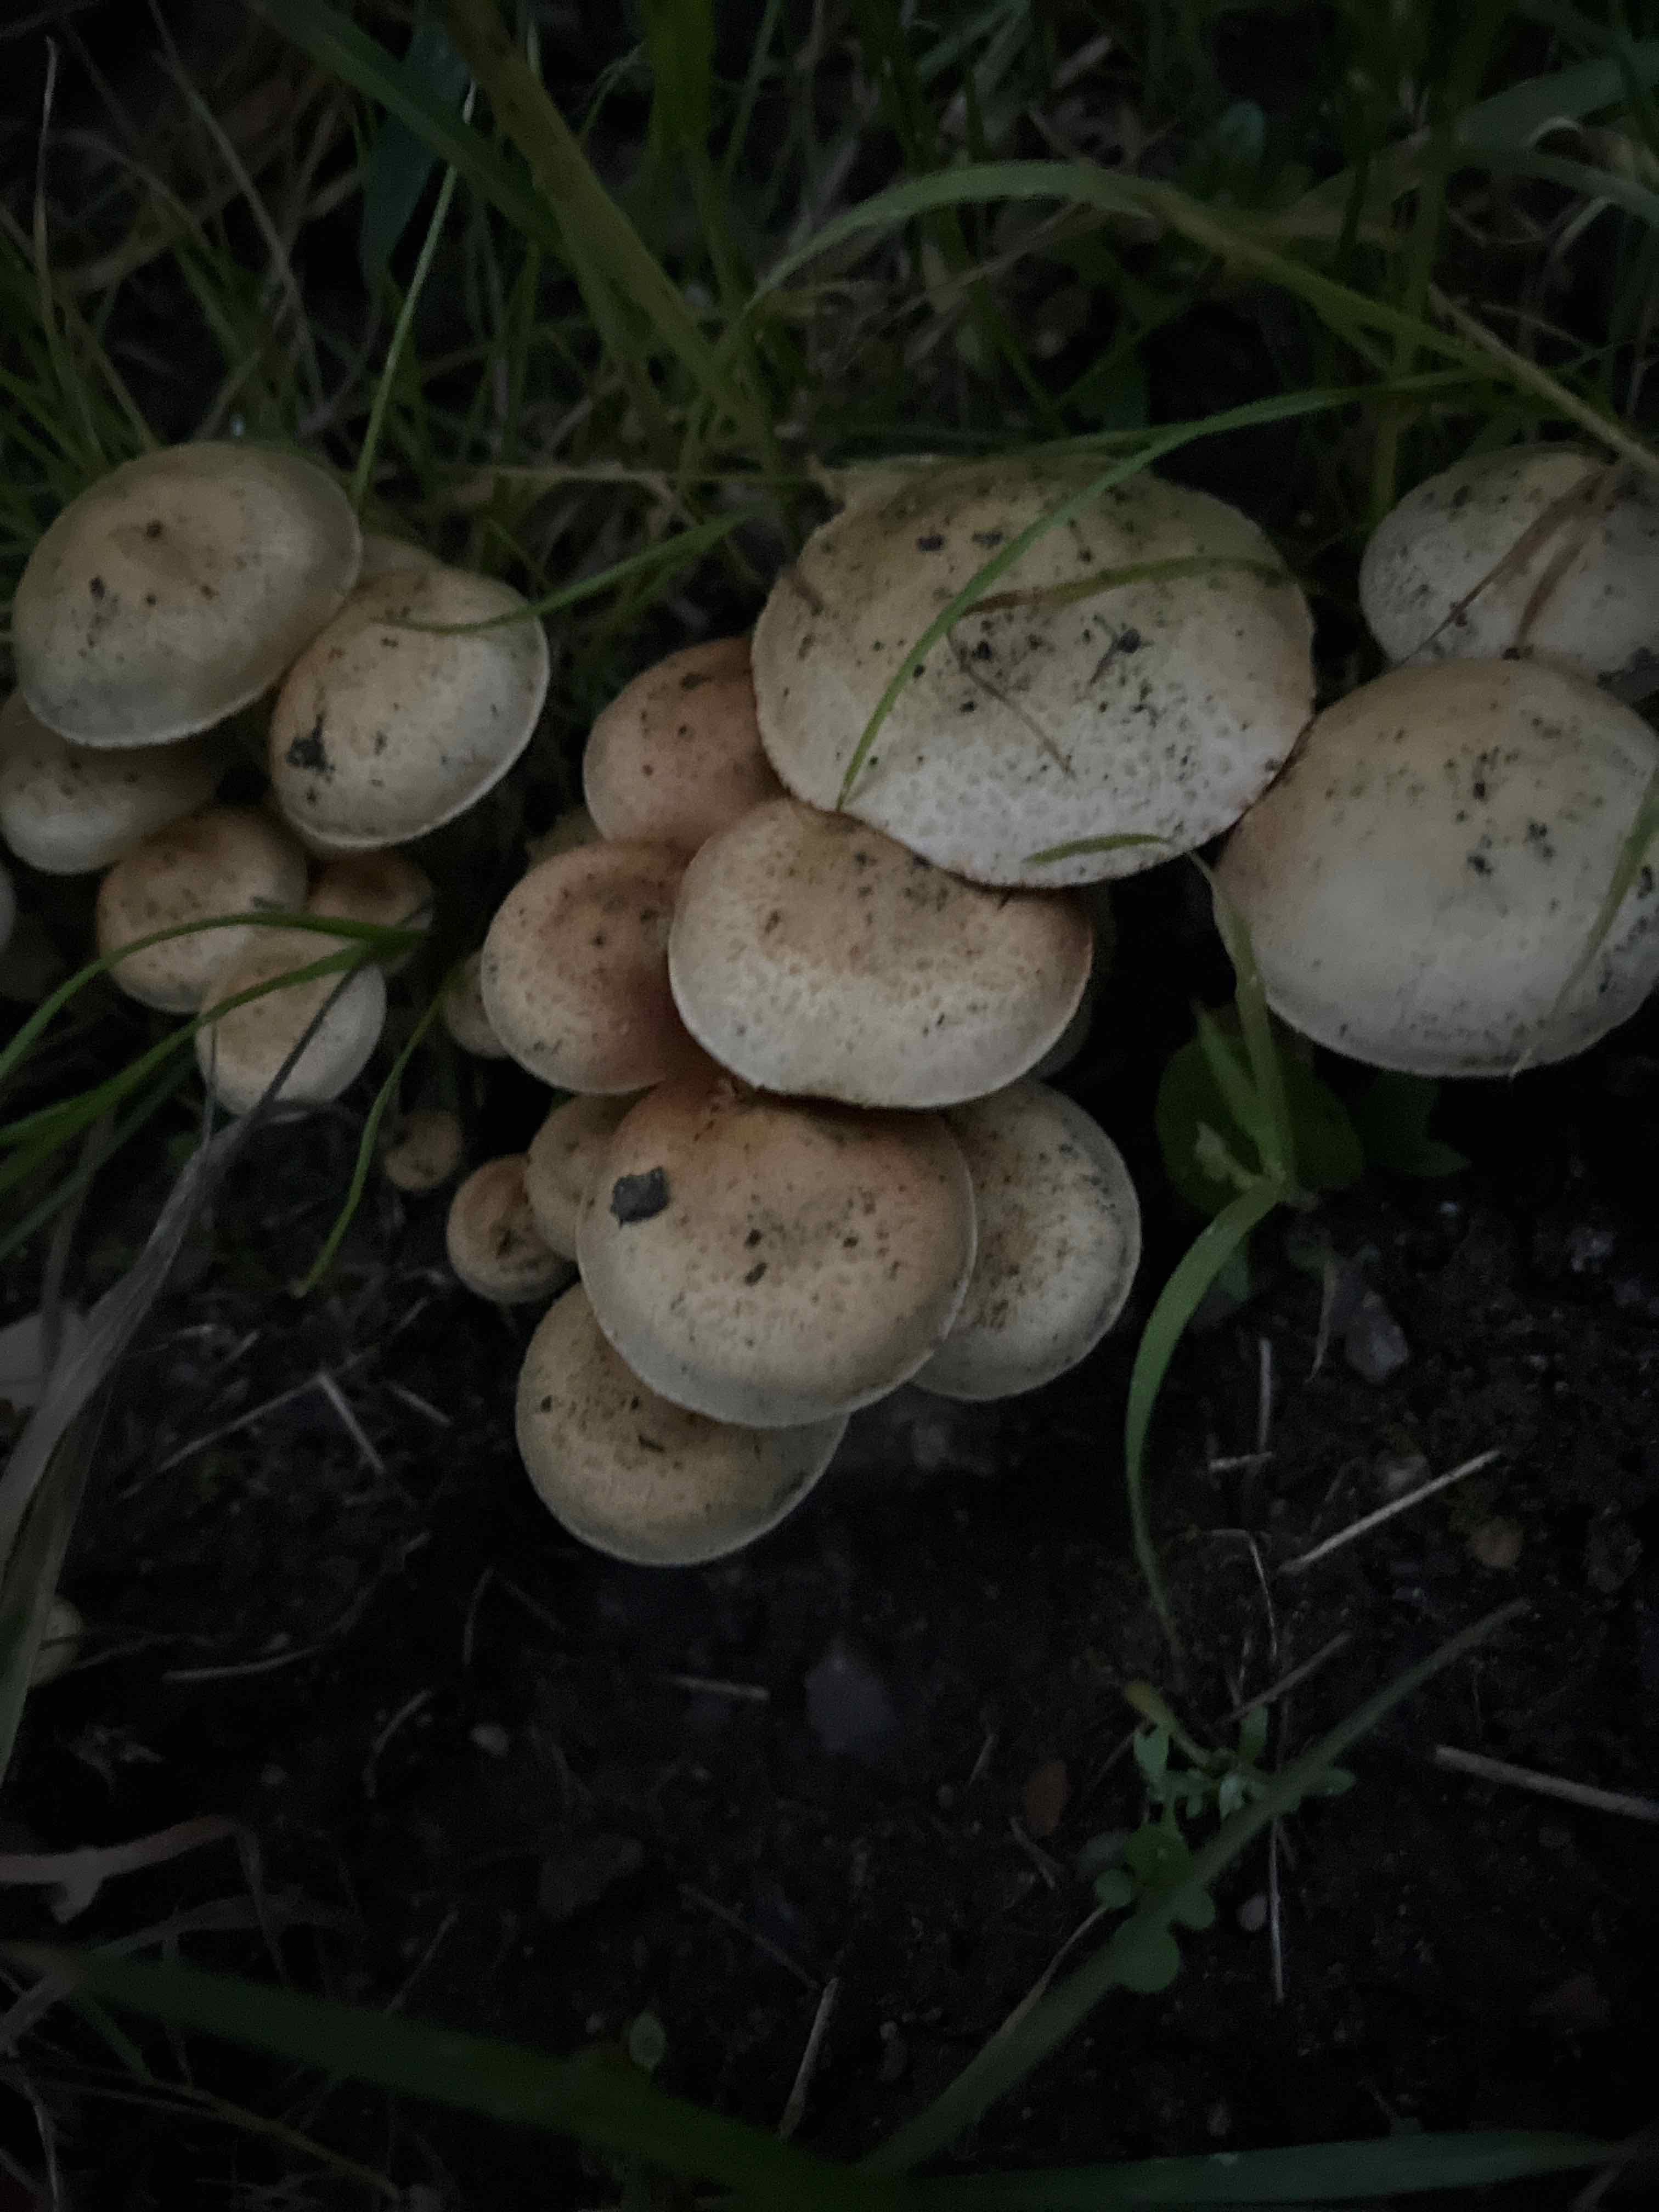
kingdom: Fungi
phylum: Basidiomycota
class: Agaricomycetes
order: Agaricales
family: Strophariaceae
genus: Pholiota
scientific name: Pholiota gummosa
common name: grøngul skælhat
